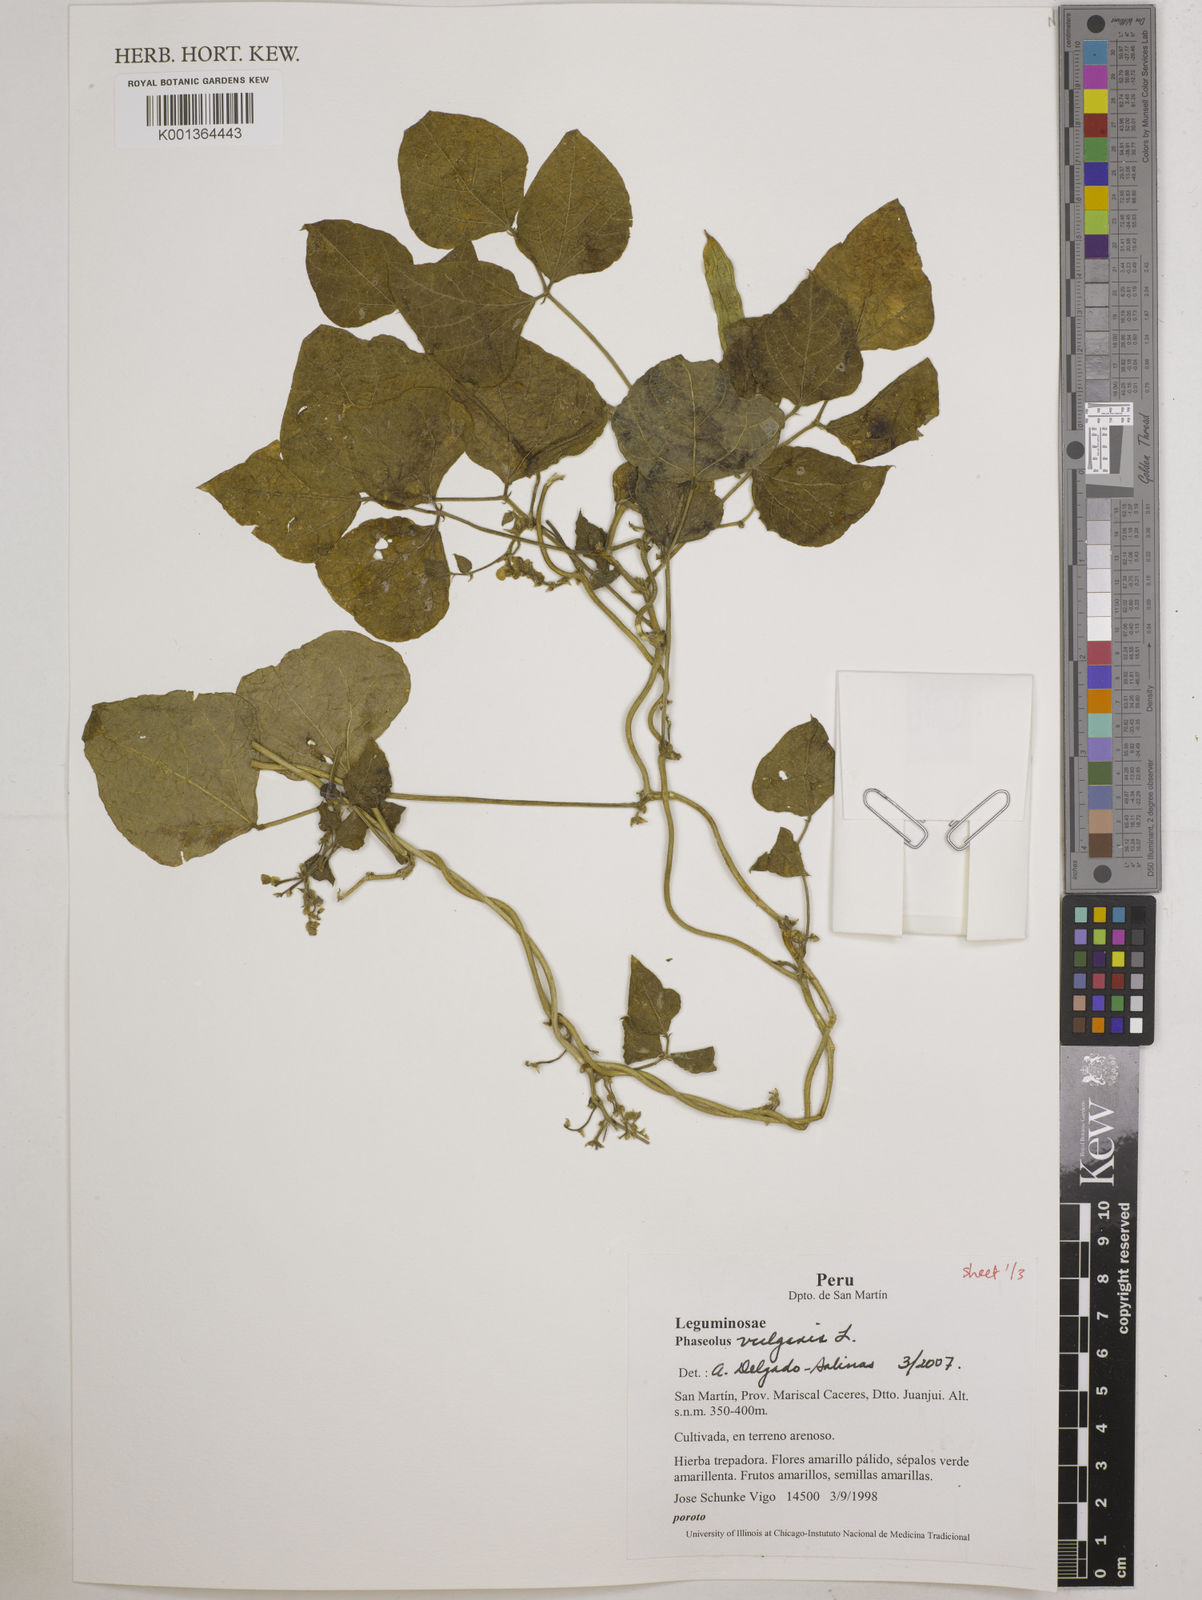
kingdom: Plantae
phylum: Tracheophyta
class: Magnoliopsida
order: Fabales
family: Fabaceae
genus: Phaseolus
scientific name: Phaseolus vulgaris
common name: Bean
